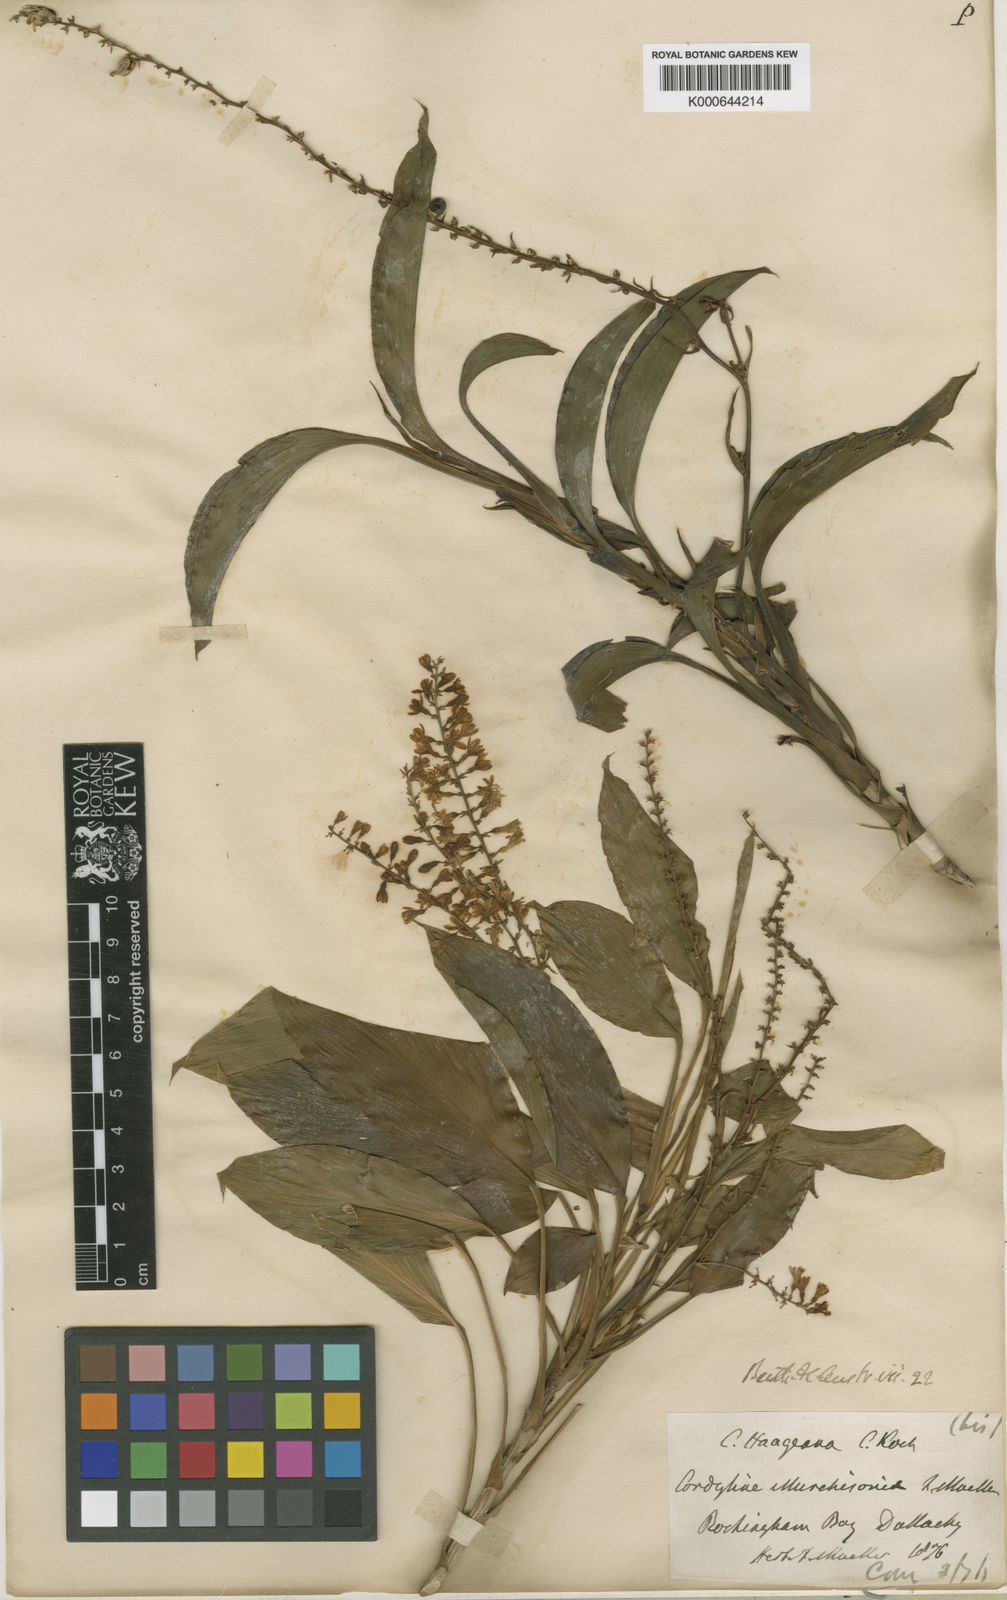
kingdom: Plantae
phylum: Tracheophyta
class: Liliopsida
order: Asparagales
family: Asparagaceae
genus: Cordyline
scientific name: Cordyline murchisoniae
